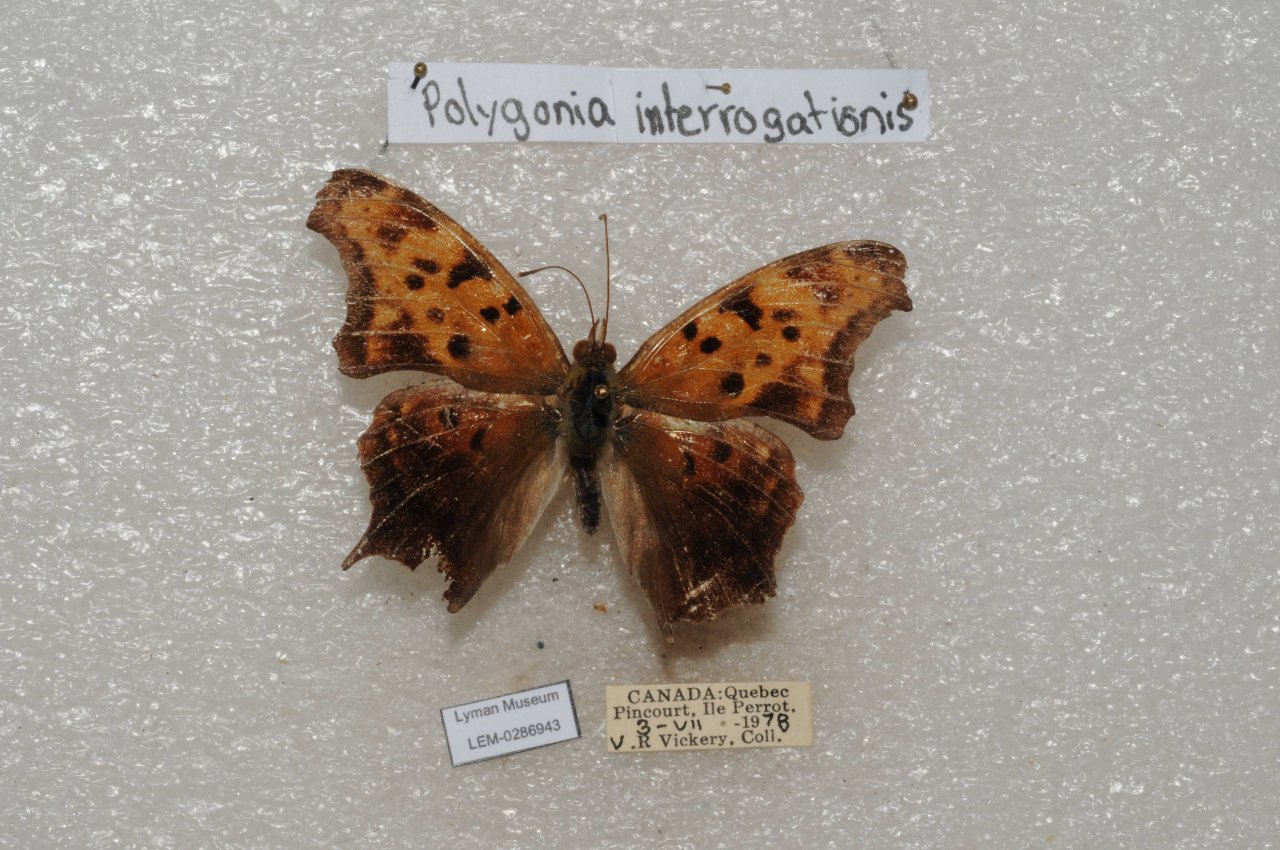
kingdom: Animalia
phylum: Arthropoda
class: Insecta
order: Lepidoptera
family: Nymphalidae
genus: Polygonia
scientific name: Polygonia interrogationis
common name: Question Mark
